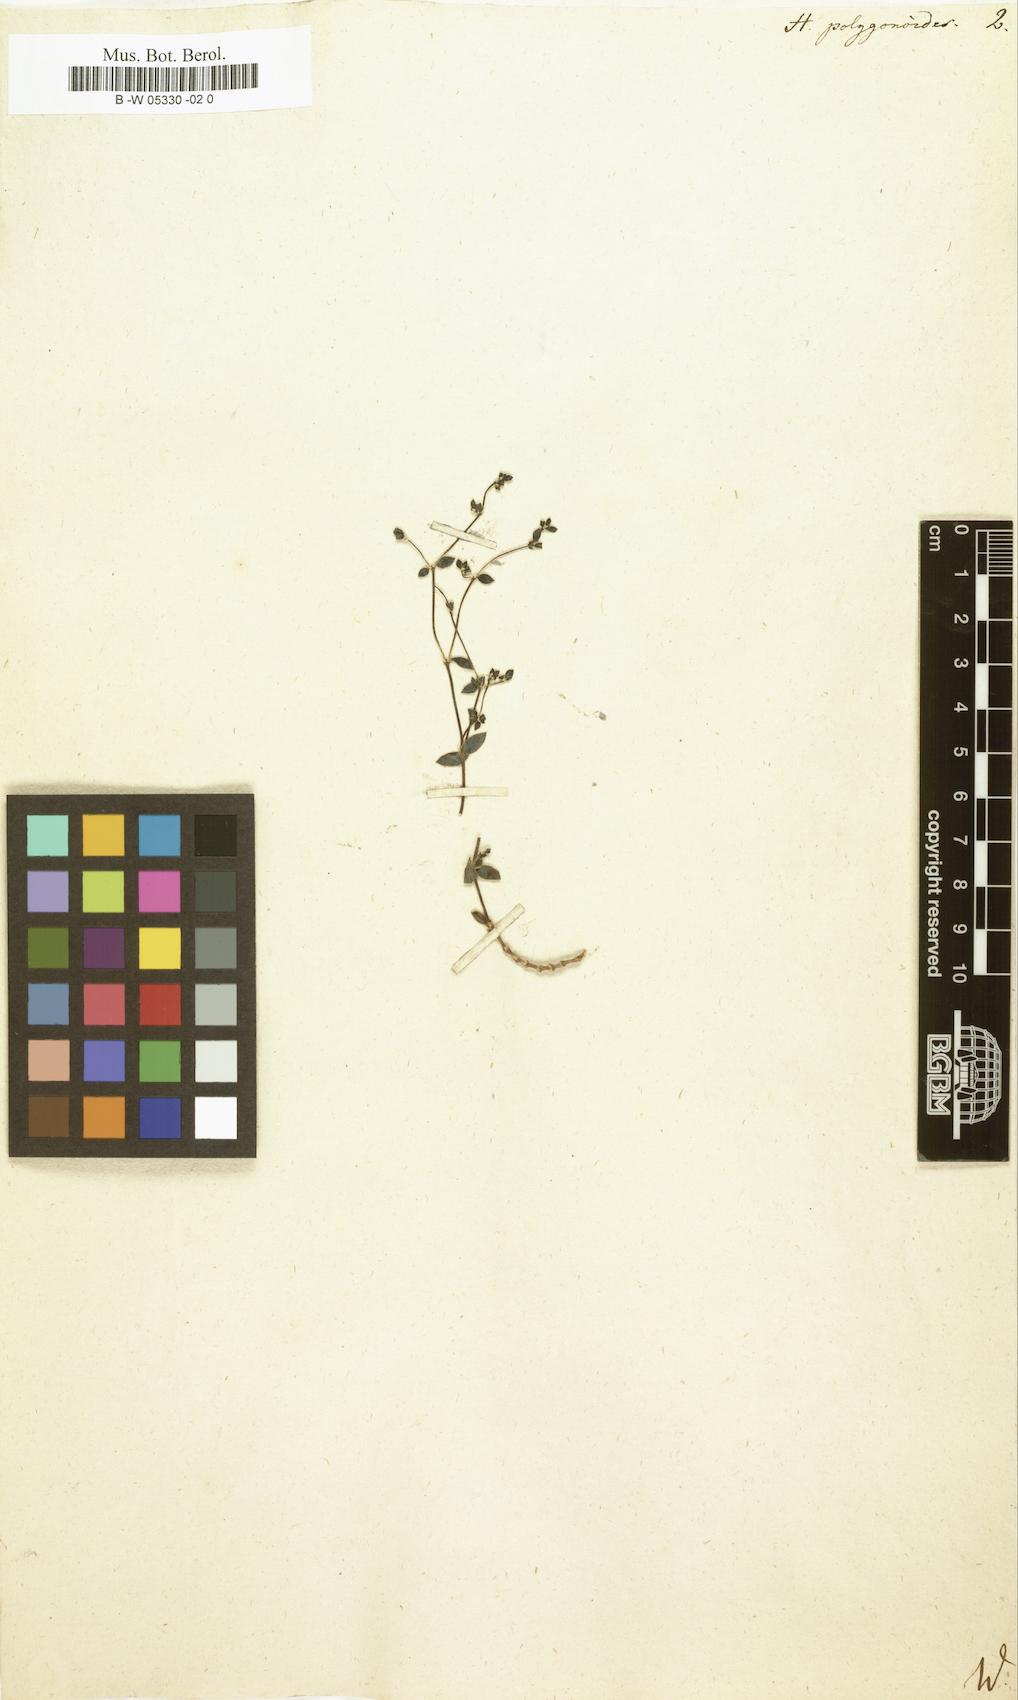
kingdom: Plantae
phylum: Tracheophyta
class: Magnoliopsida
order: Caryophyllales
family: Caryophyllaceae
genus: Paronychia
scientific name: Paronychia suffruticosa
